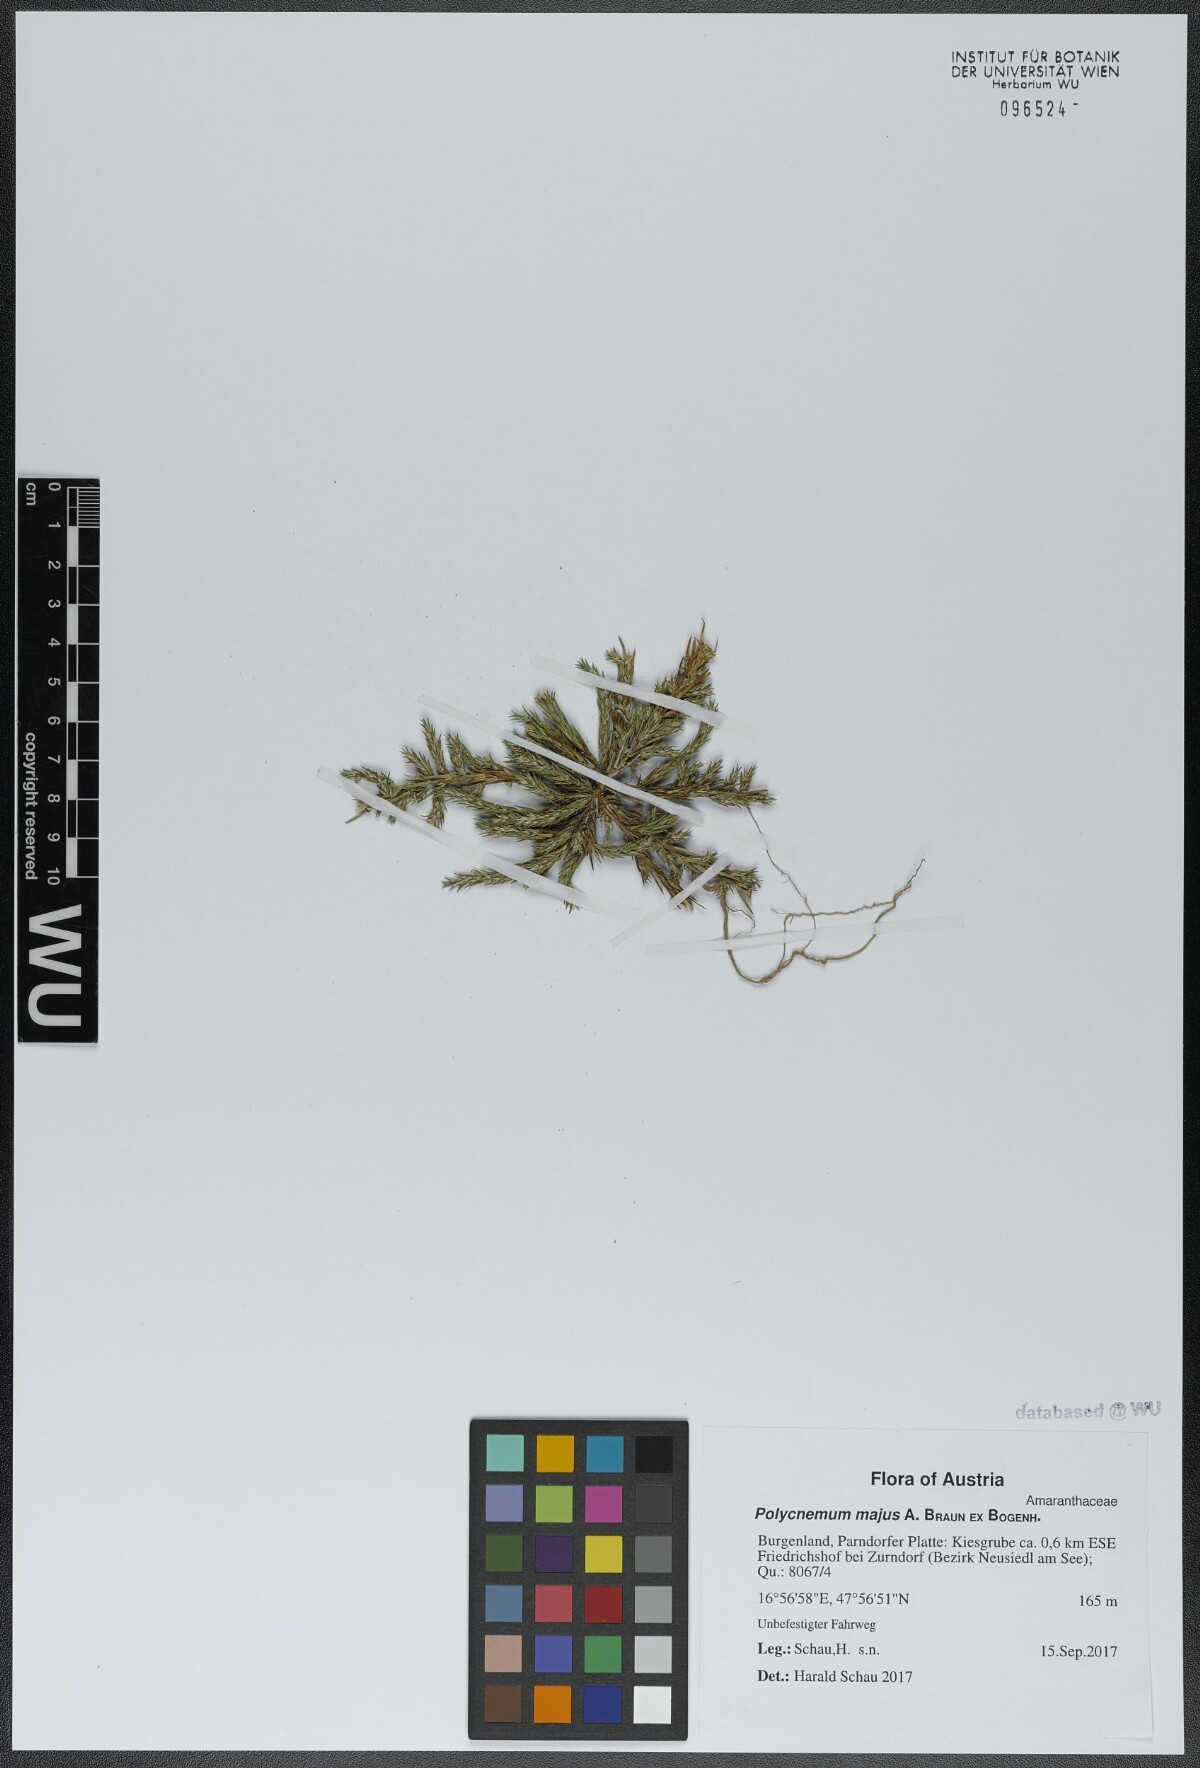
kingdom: Plantae
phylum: Tracheophyta
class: Magnoliopsida
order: Caryophyllales
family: Amaranthaceae
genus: Polycnemum
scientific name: Polycnemum majus
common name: Giant needleleaf
